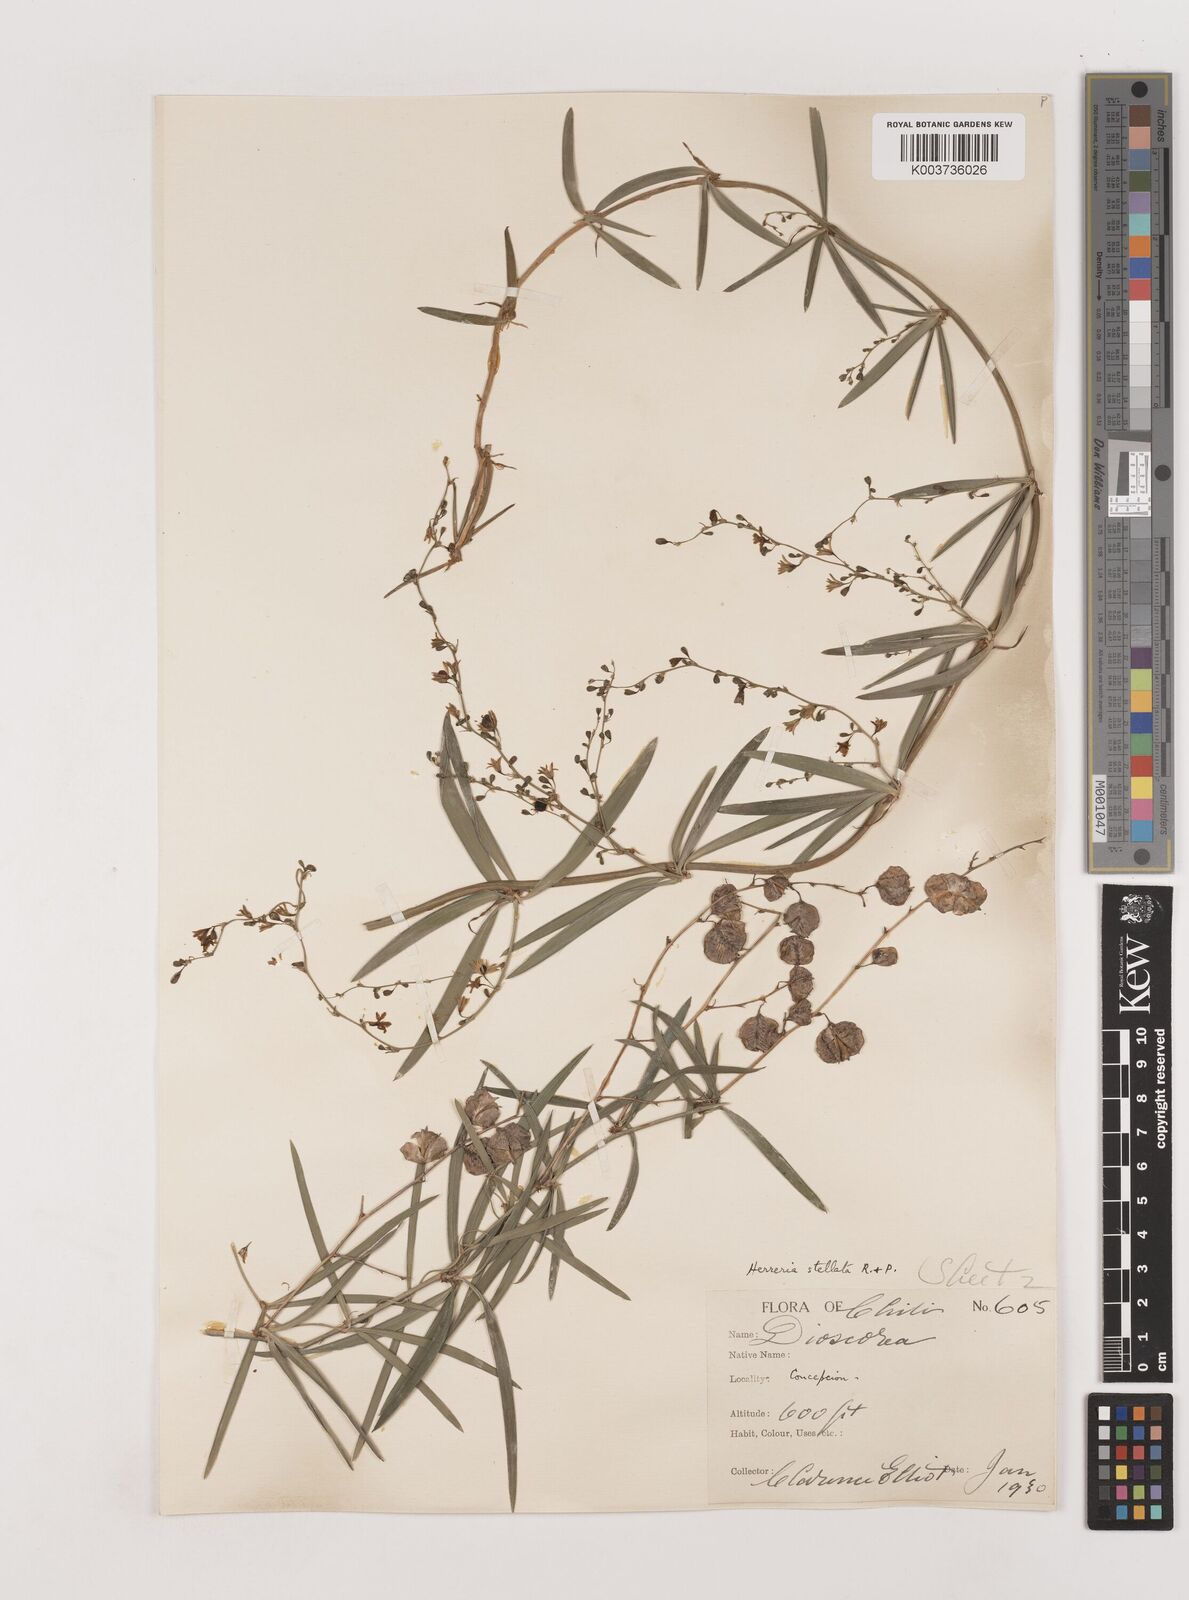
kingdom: Plantae
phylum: Tracheophyta
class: Liliopsida
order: Asparagales
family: Asparagaceae
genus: Herreria
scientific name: Herreria stellata
